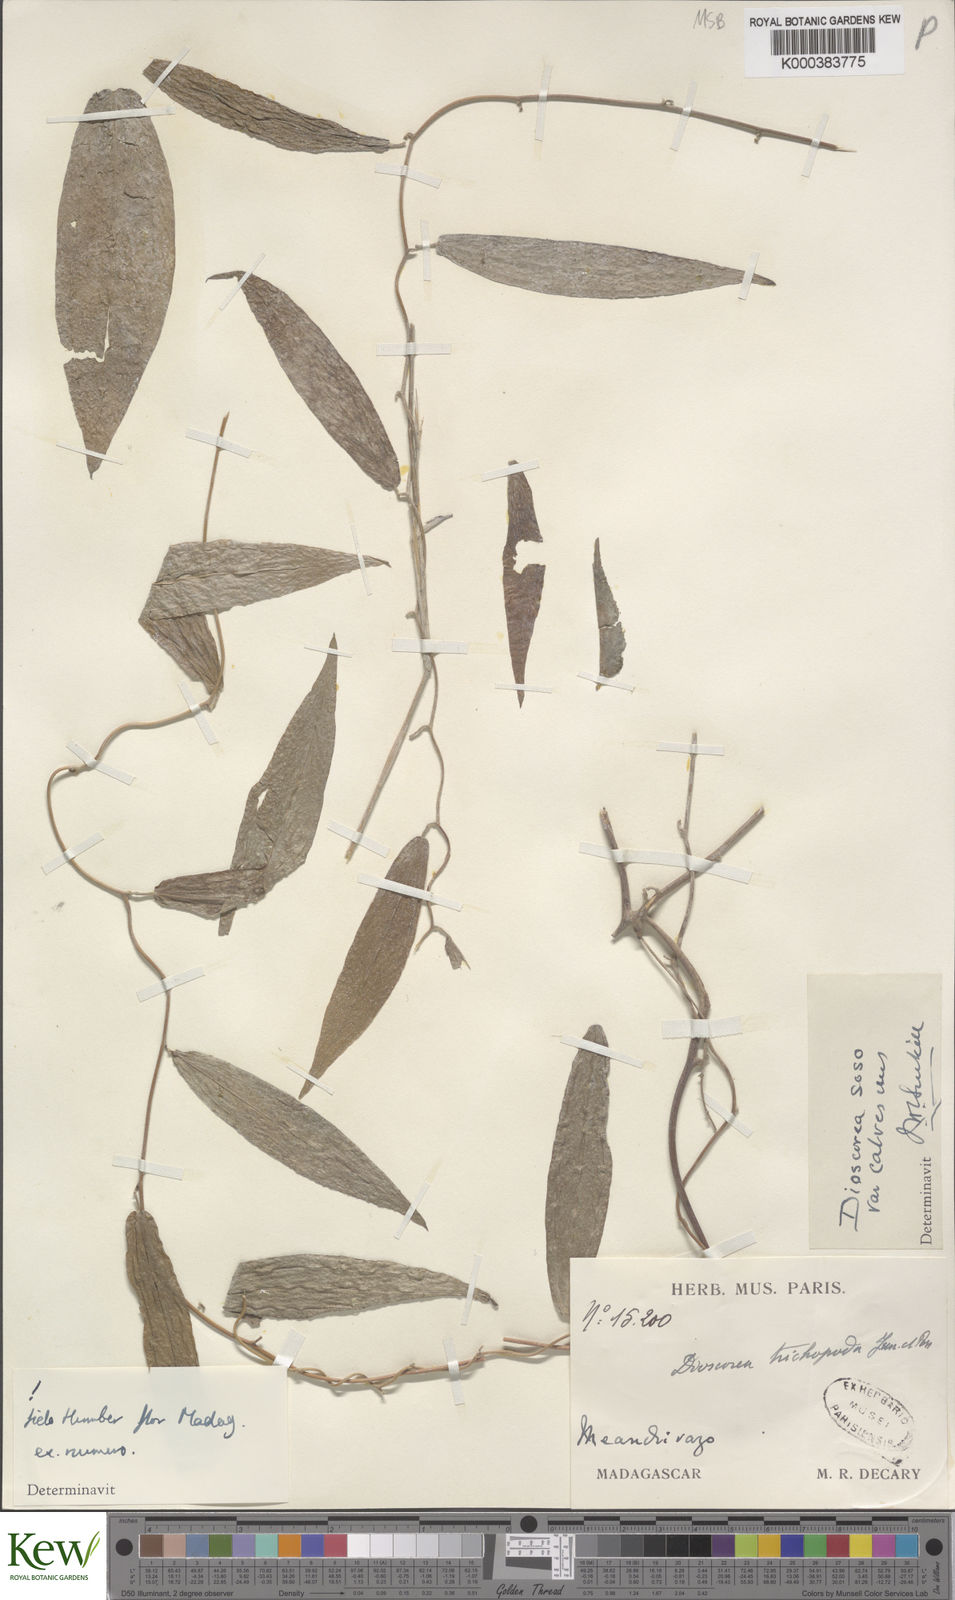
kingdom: Plantae
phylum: Tracheophyta
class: Liliopsida
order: Dioscoreales
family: Dioscoreaceae
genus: Dioscorea
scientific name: Dioscorea
